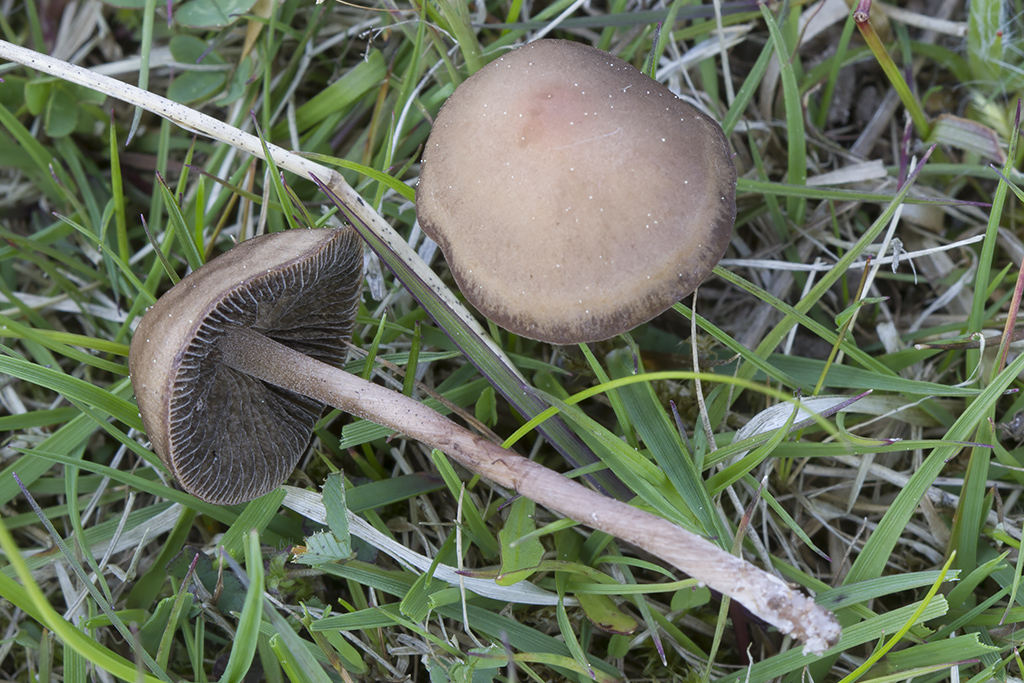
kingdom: Fungi
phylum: Basidiomycota
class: Agaricomycetes
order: Agaricales
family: Bolbitiaceae
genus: Panaeolus
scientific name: Panaeolus fimicola
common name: tidlig glanshat
